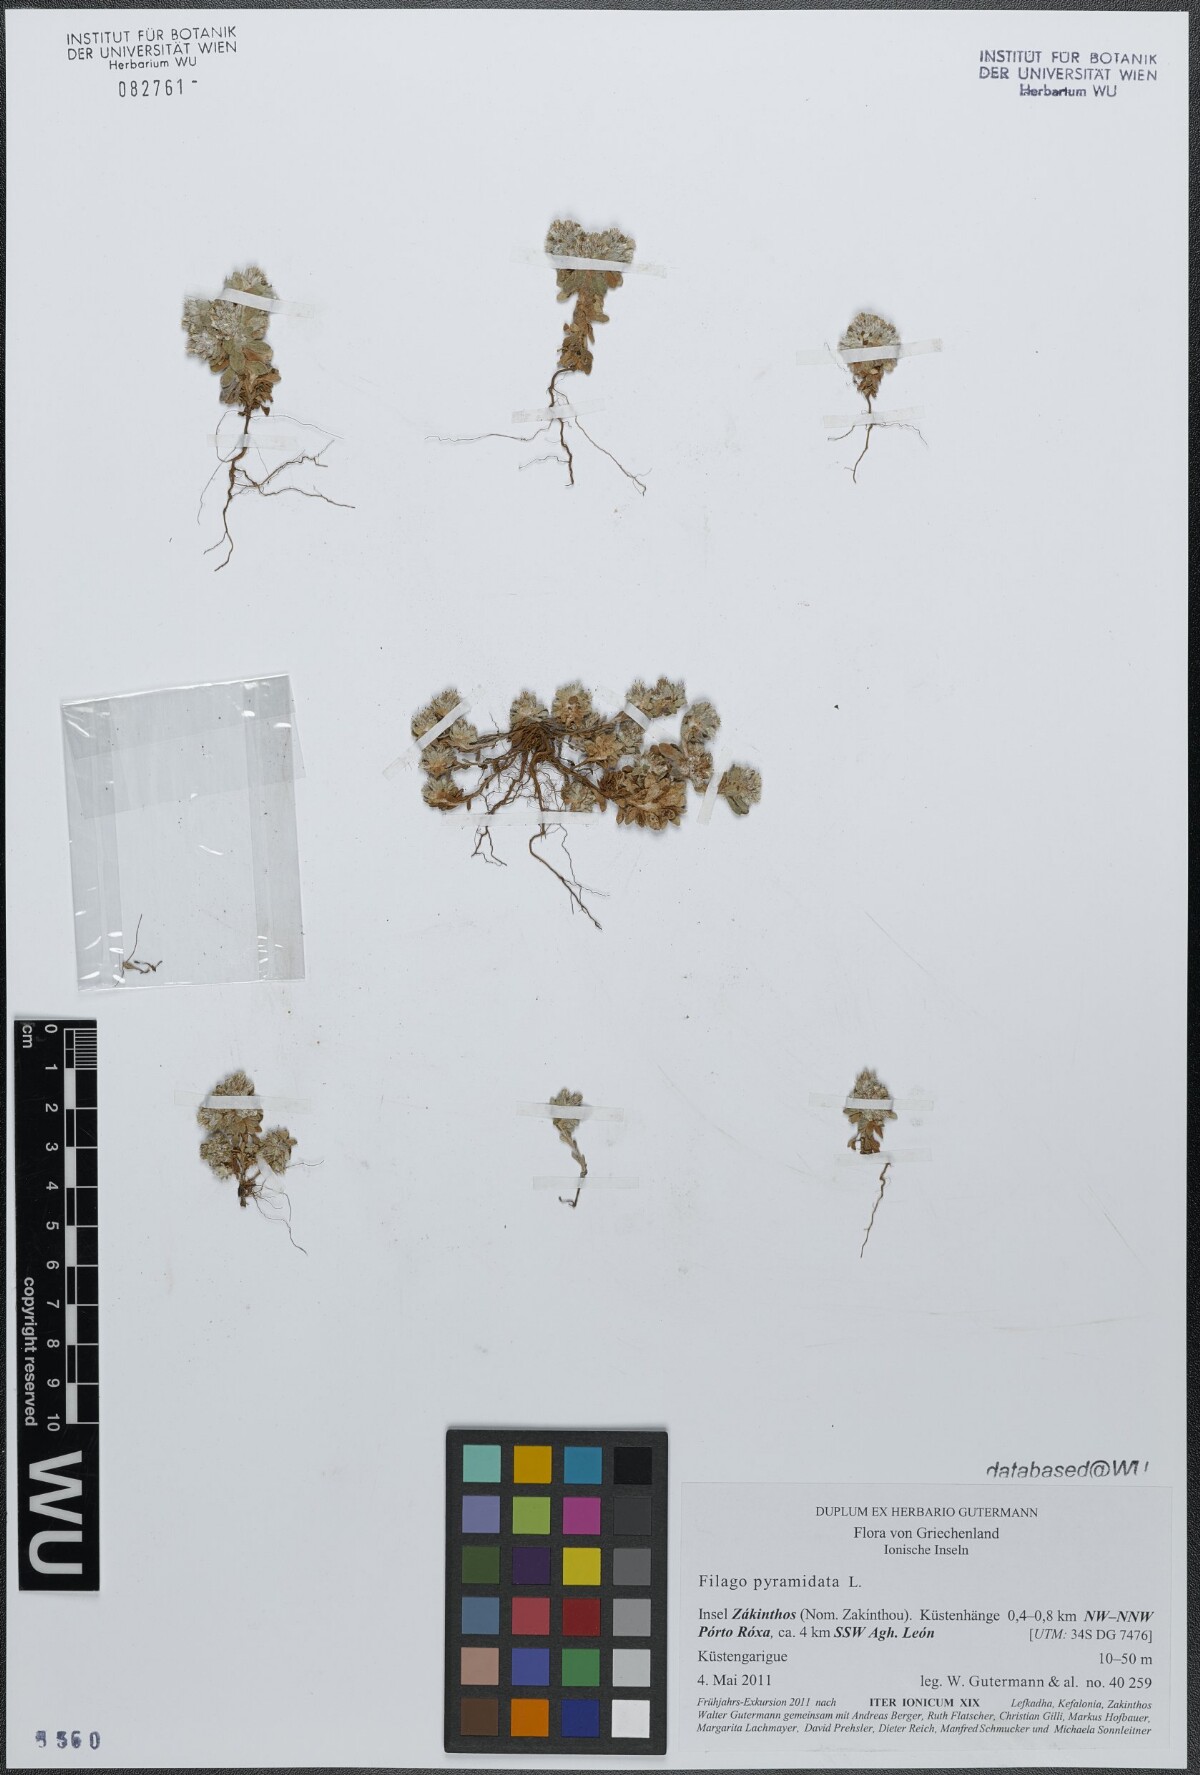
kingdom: Plantae
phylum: Tracheophyta
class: Magnoliopsida
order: Asterales
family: Asteraceae
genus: Filago
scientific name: Filago pyramidata
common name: Broad-leaved cudweed
